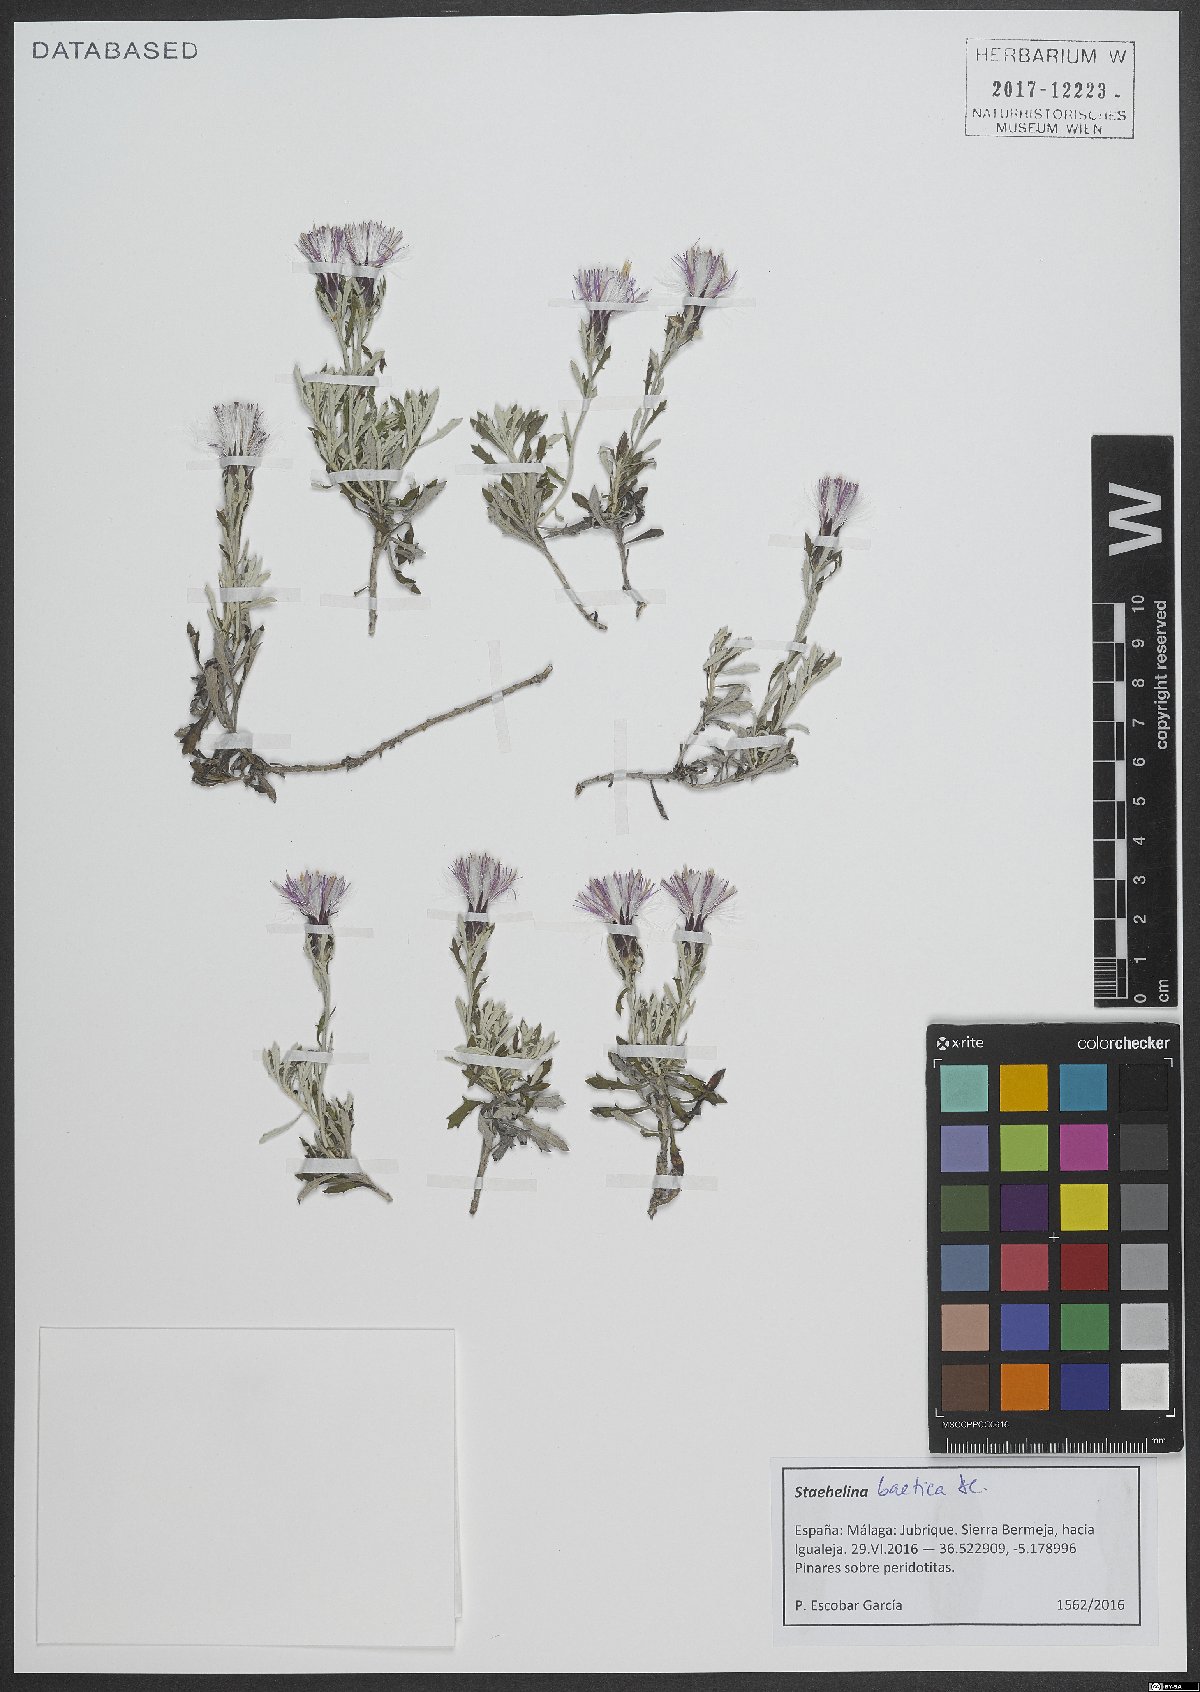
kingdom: Plantae
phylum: Tracheophyta
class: Magnoliopsida
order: Asterales
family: Asteraceae
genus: Staehelina
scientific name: Staehelina baetica
